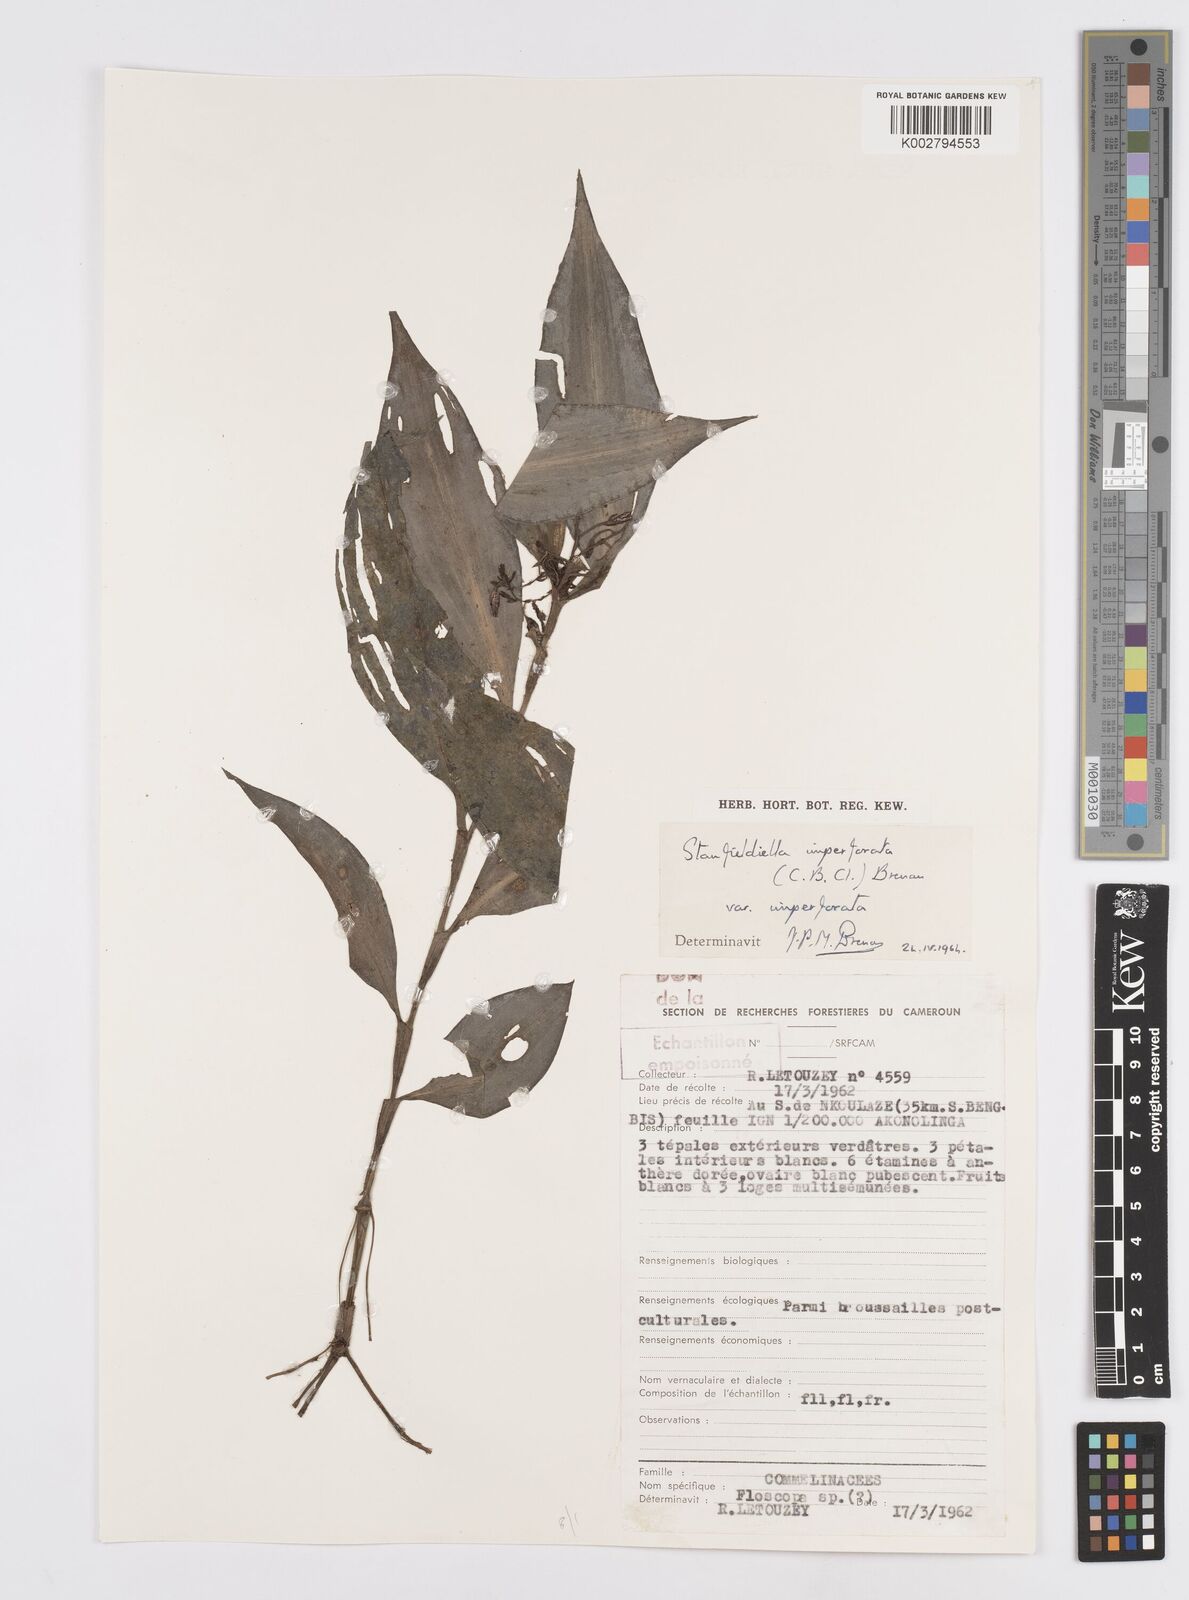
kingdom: Plantae
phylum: Tracheophyta
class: Liliopsida
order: Commelinales
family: Commelinaceae
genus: Stanfieldiella
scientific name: Stanfieldiella imperforata
